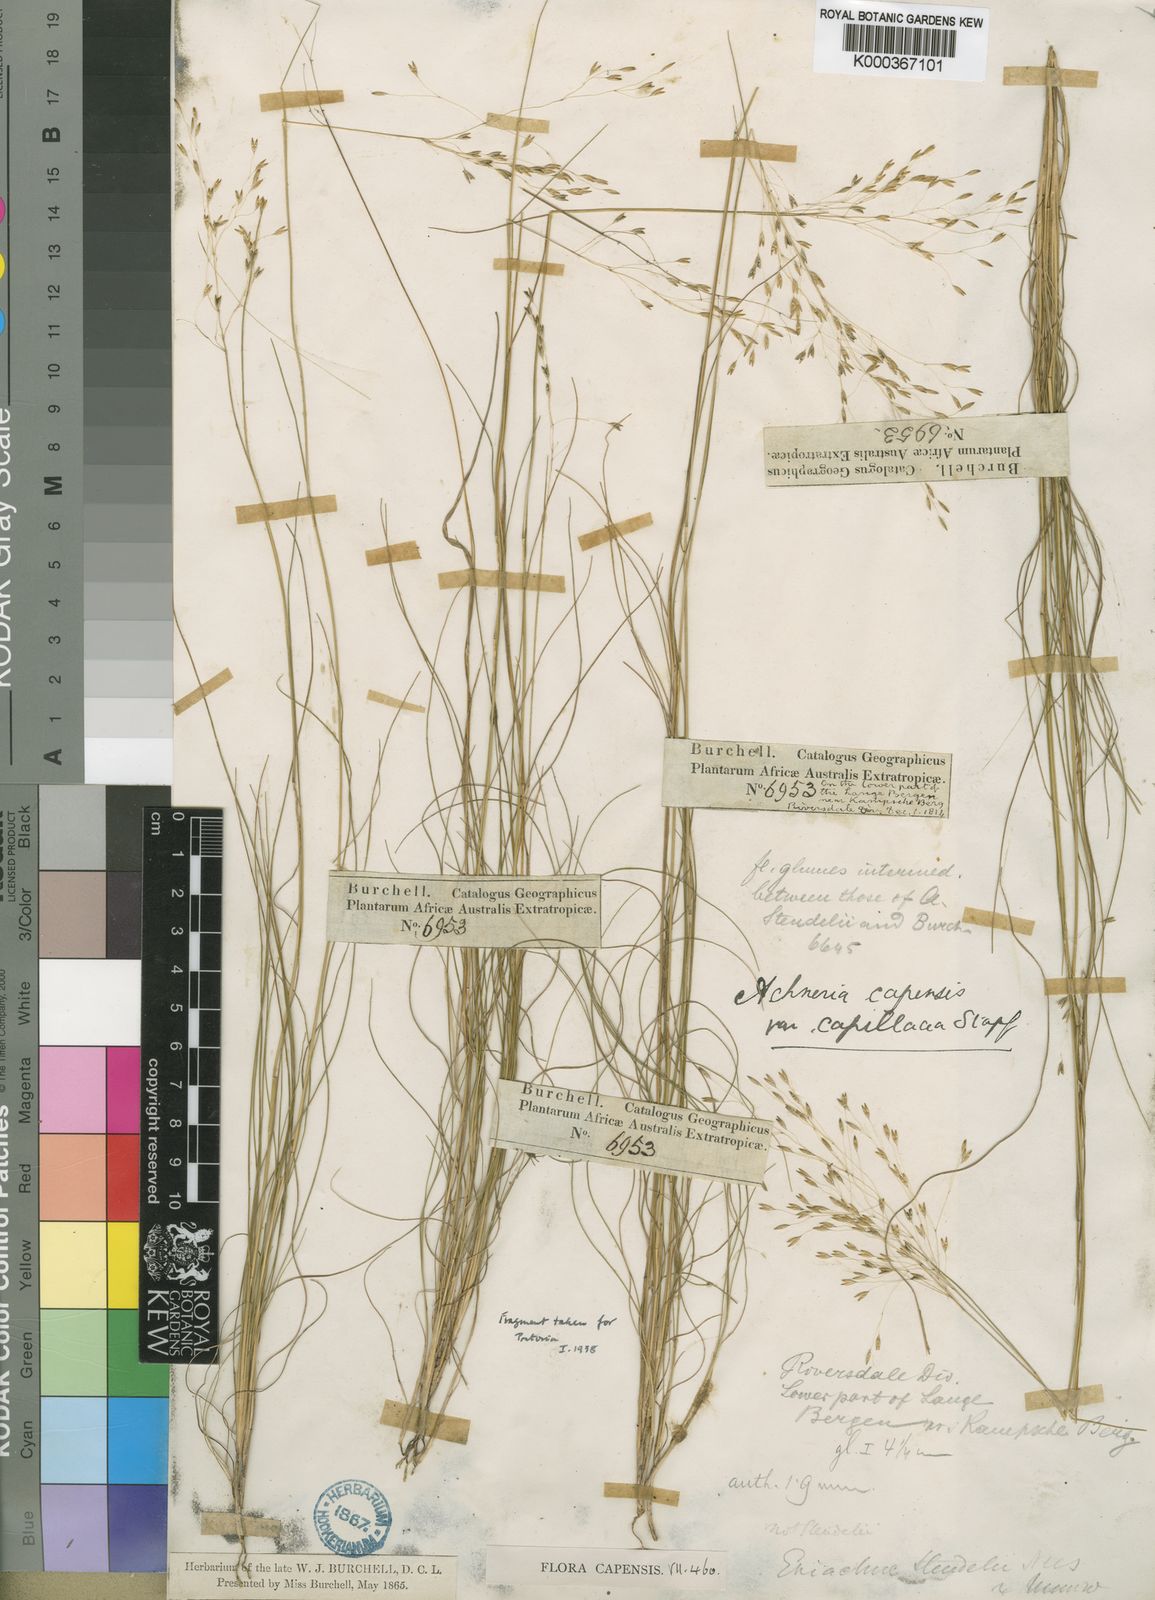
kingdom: Plantae
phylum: Tracheophyta
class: Liliopsida
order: Poales
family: Poaceae
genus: Pentameris
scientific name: Pentameris malouinensis
